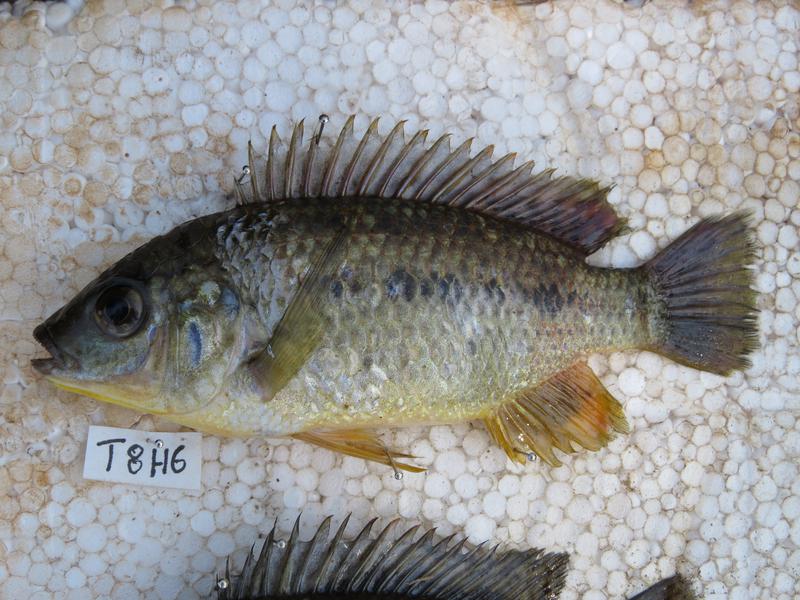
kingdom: Animalia
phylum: Chordata
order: Perciformes
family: Cichlidae
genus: Oreochromis
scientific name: Oreochromis shiranus
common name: Chilwa tilapia
